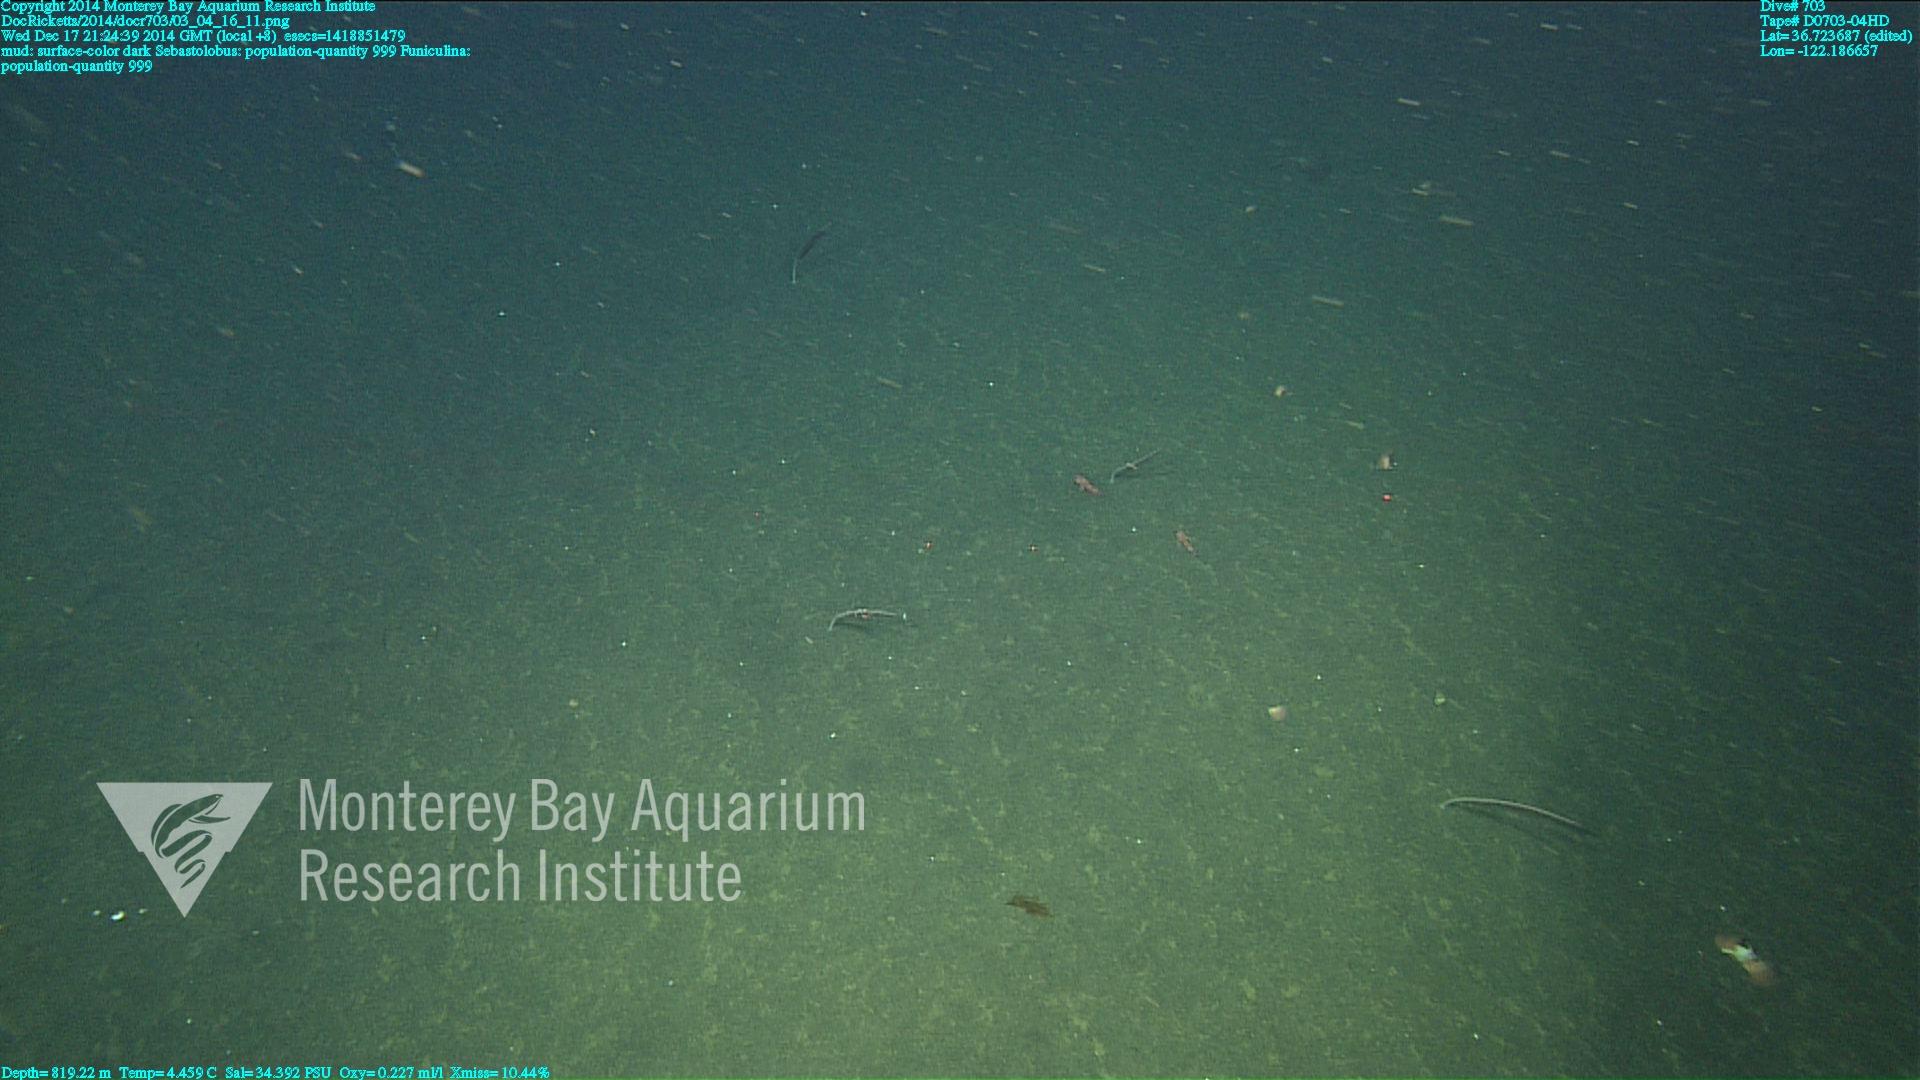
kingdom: Animalia
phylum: Cnidaria
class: Anthozoa
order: Scleralcyonacea
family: Funiculinidae
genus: Funiculina
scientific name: Funiculina
